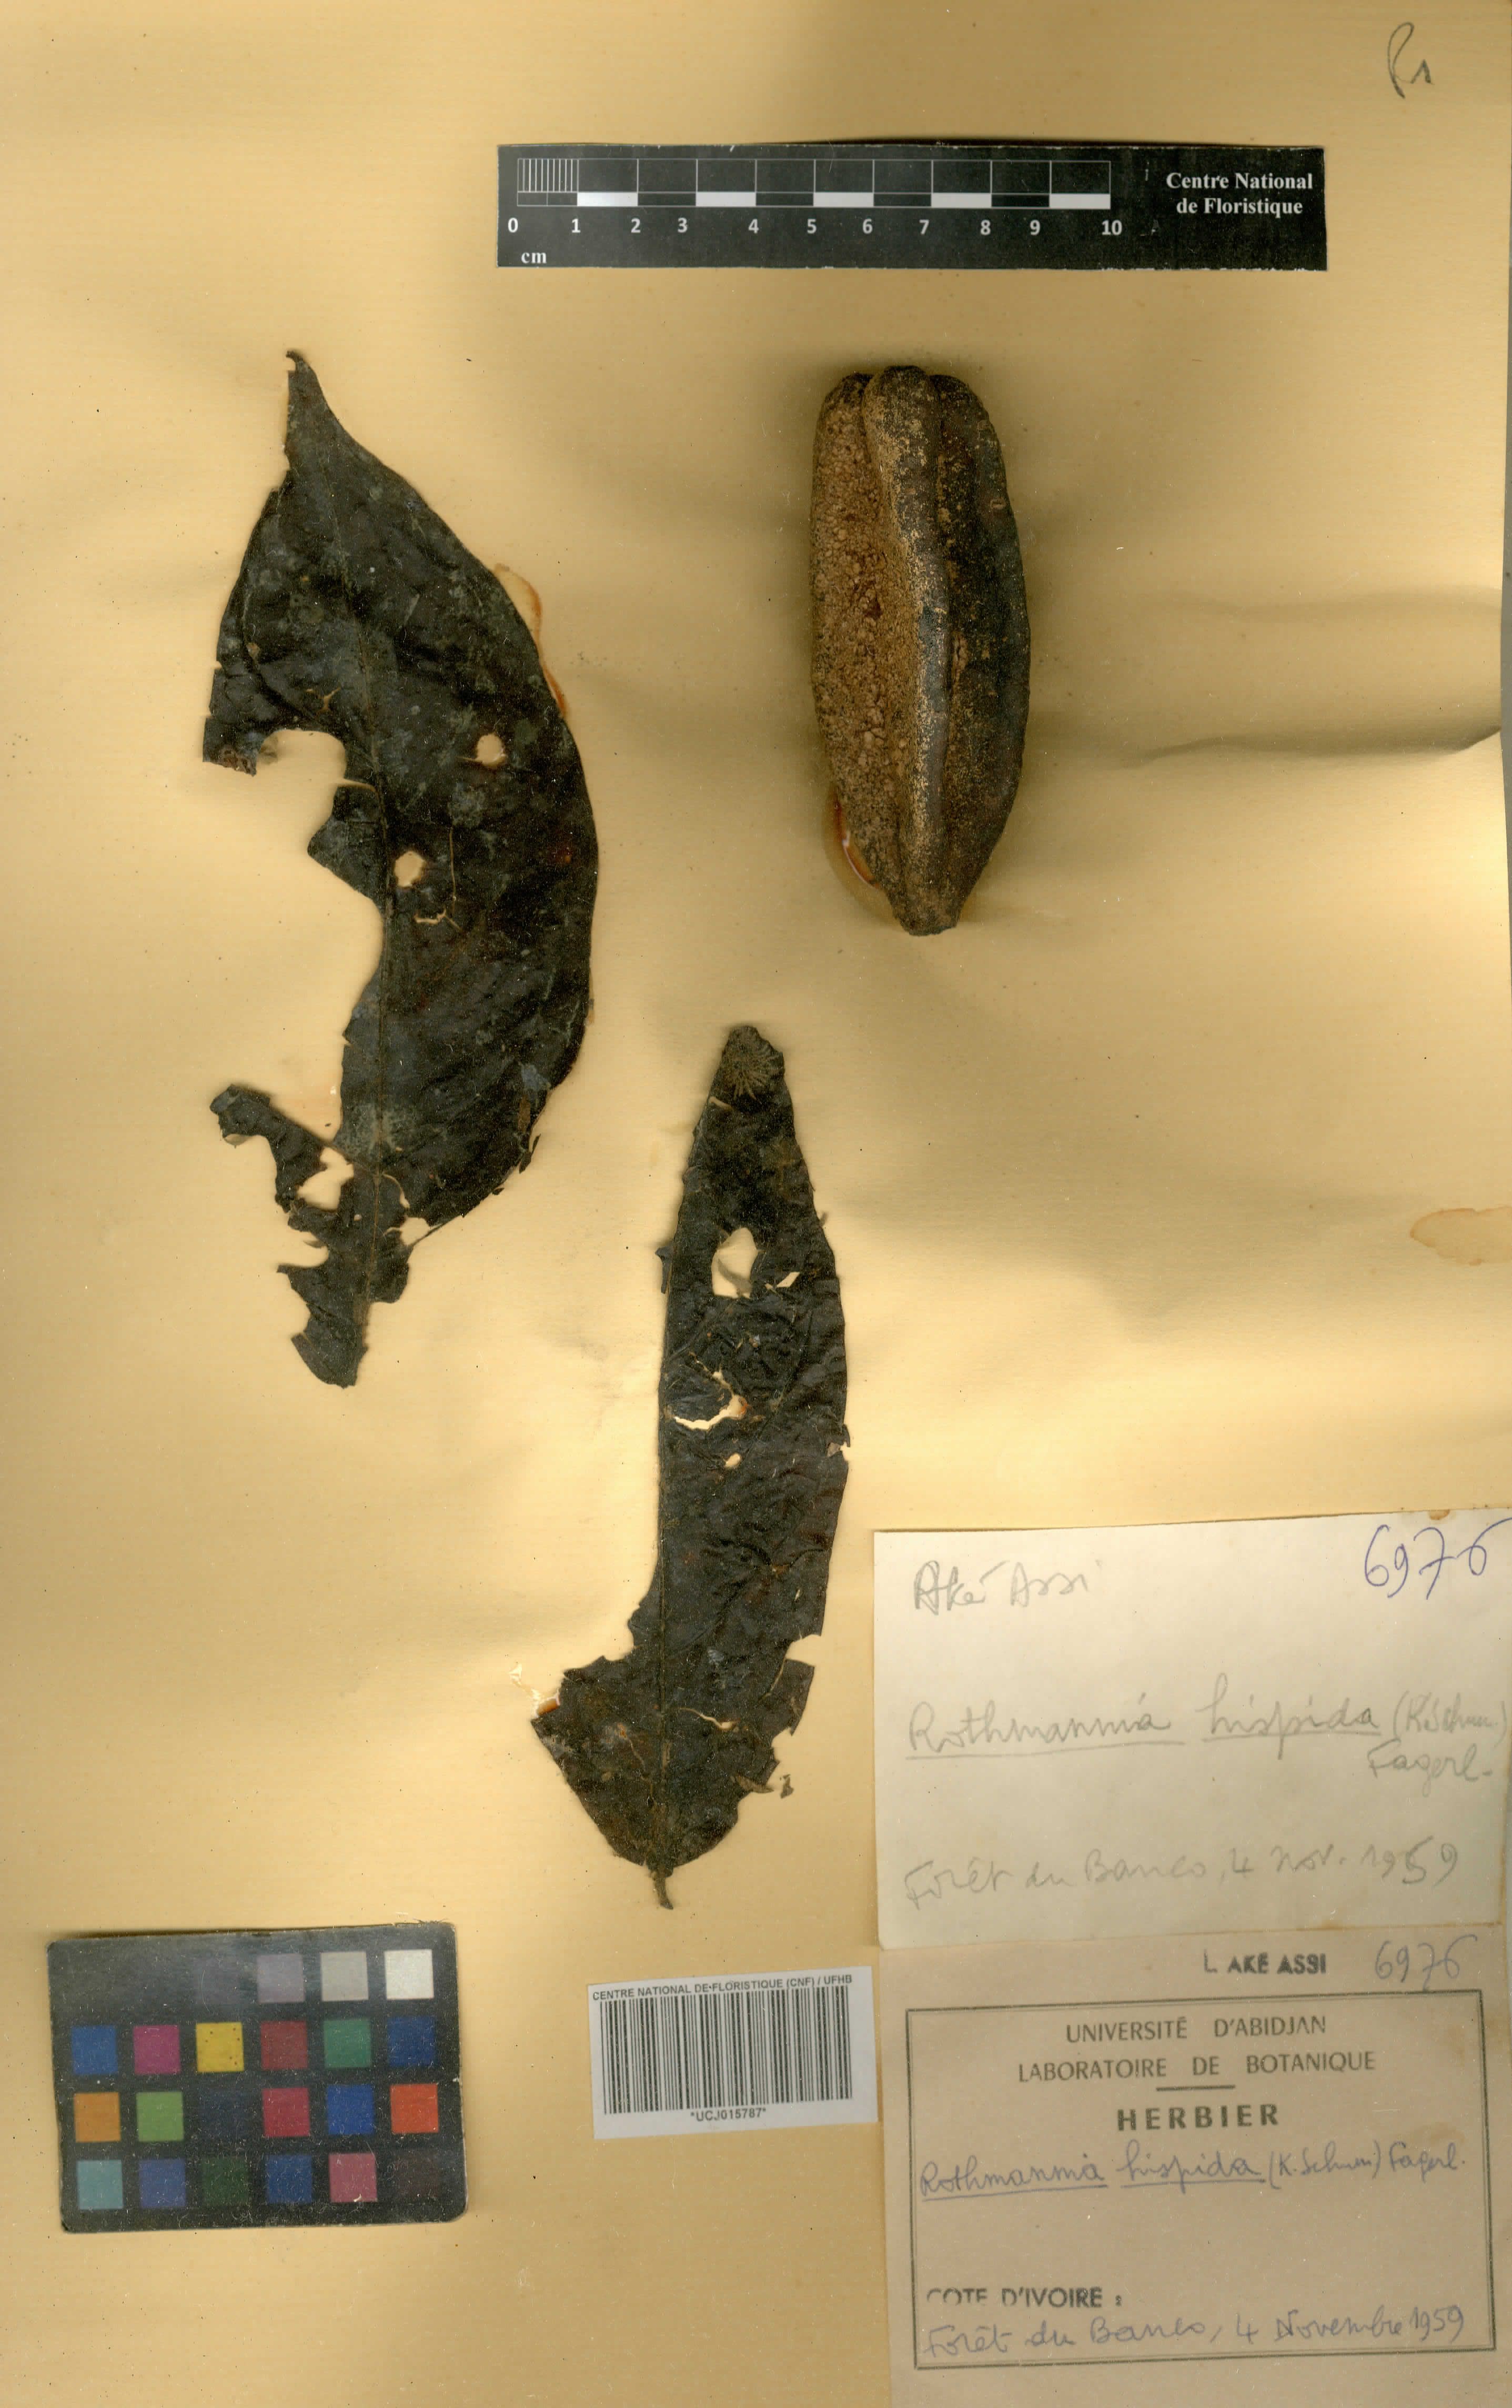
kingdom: Plantae
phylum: Tracheophyta
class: Magnoliopsida
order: Gentianales
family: Rubiaceae
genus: Rothmannia
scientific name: Rothmannia hispida
